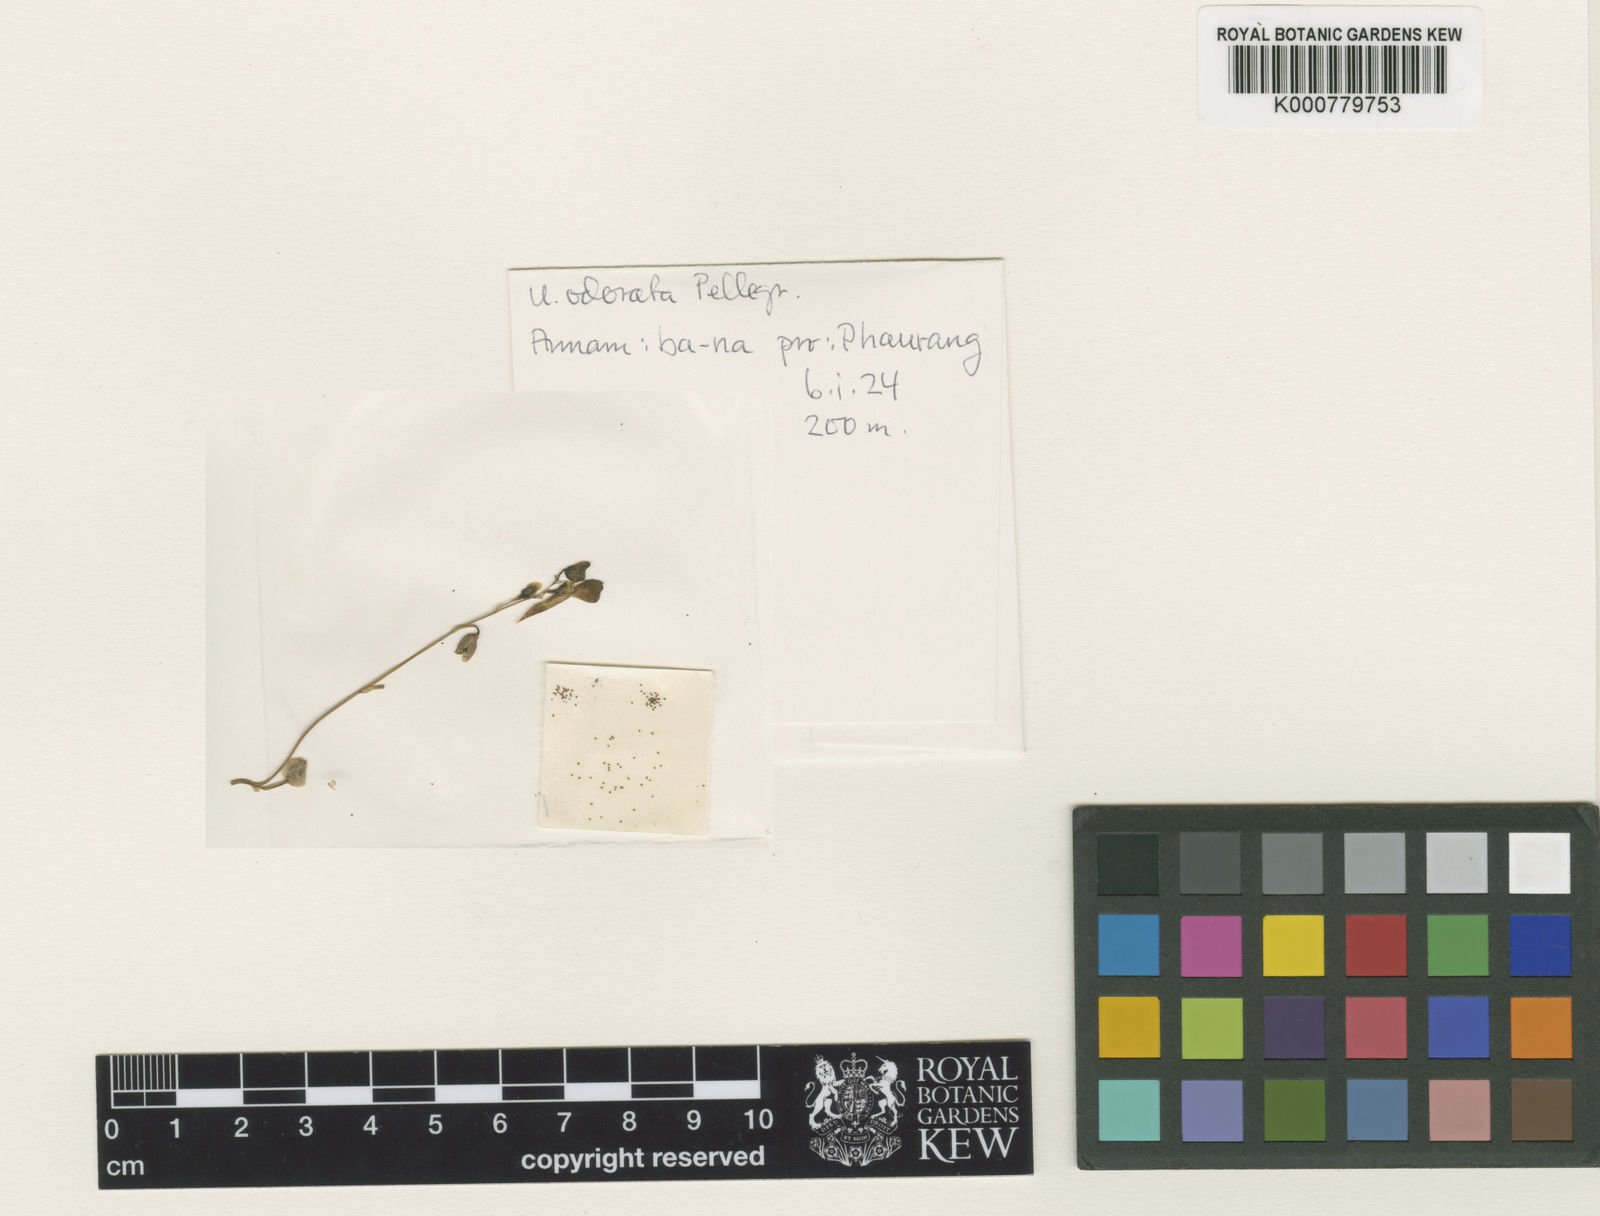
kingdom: Plantae
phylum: Tracheophyta
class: Magnoliopsida
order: Lamiales
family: Lentibulariaceae
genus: Utricularia
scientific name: Utricularia odorata
